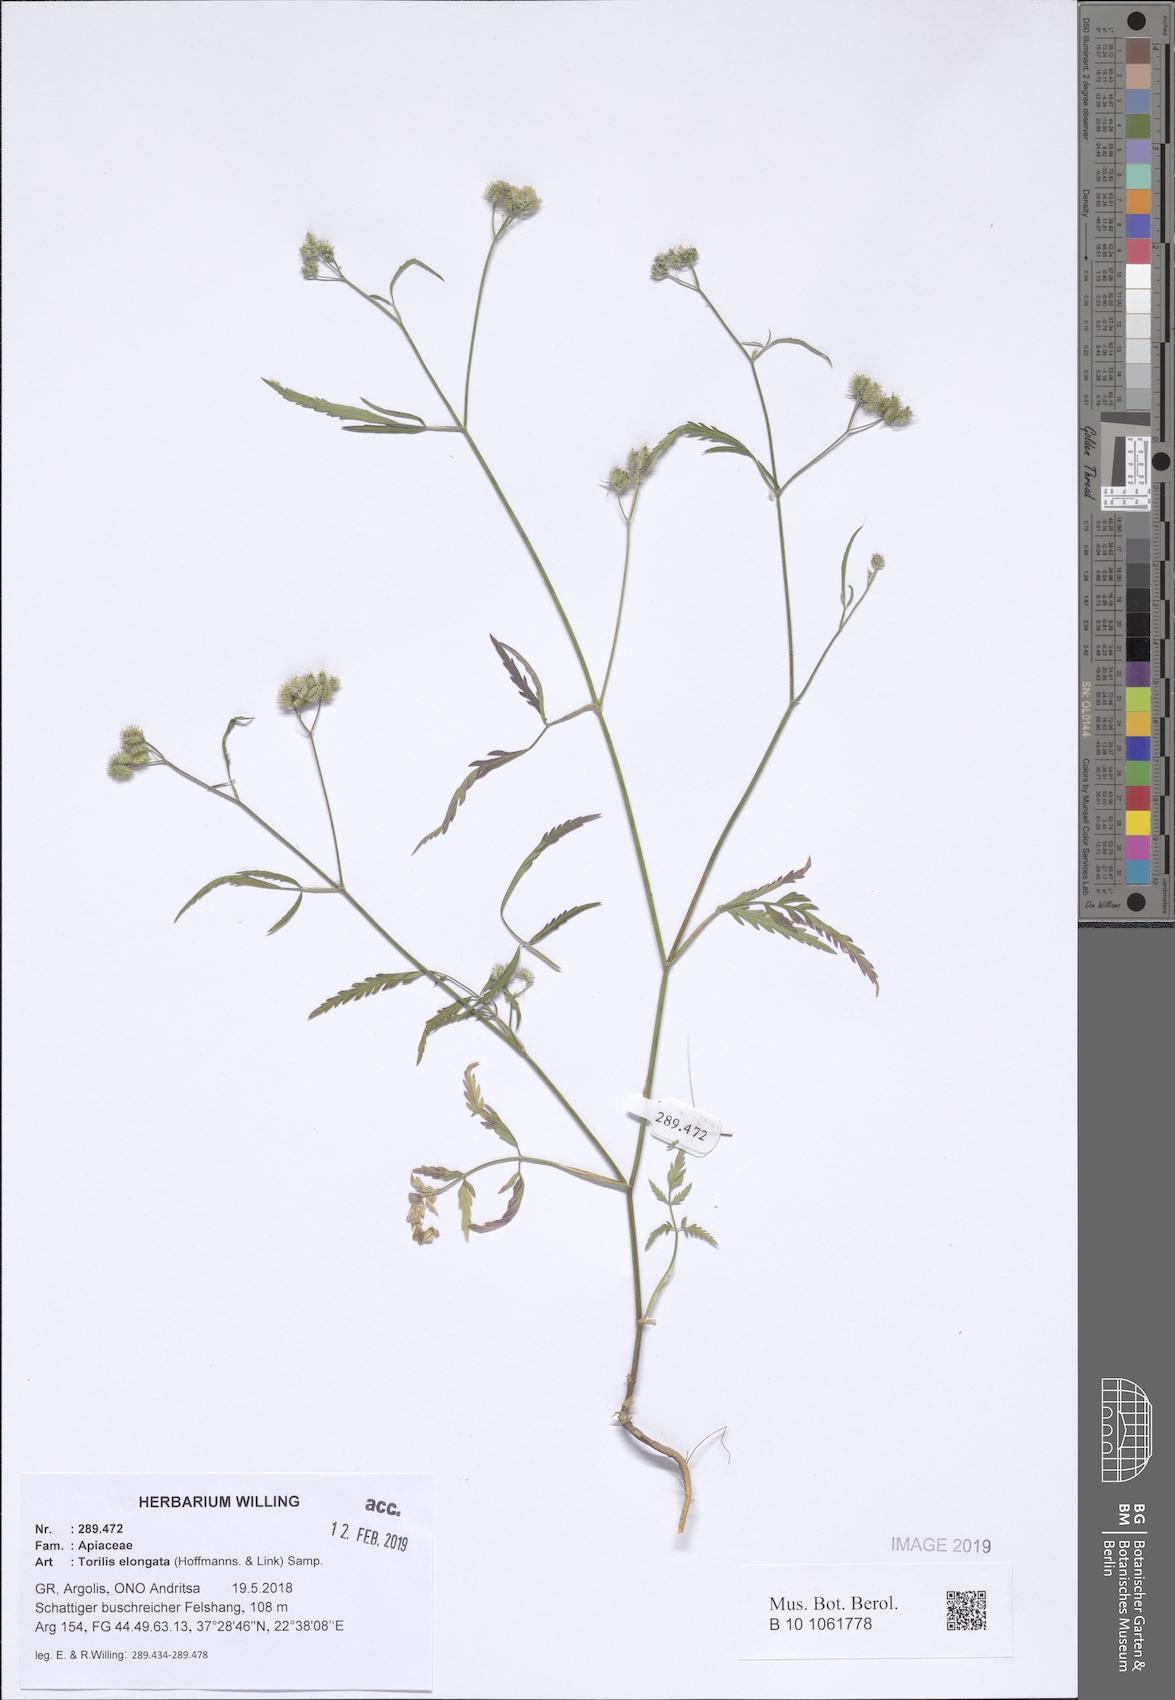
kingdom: Plantae
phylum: Tracheophyta
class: Magnoliopsida
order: Apiales
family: Apiaceae
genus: Torilis
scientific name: Torilis elongata
